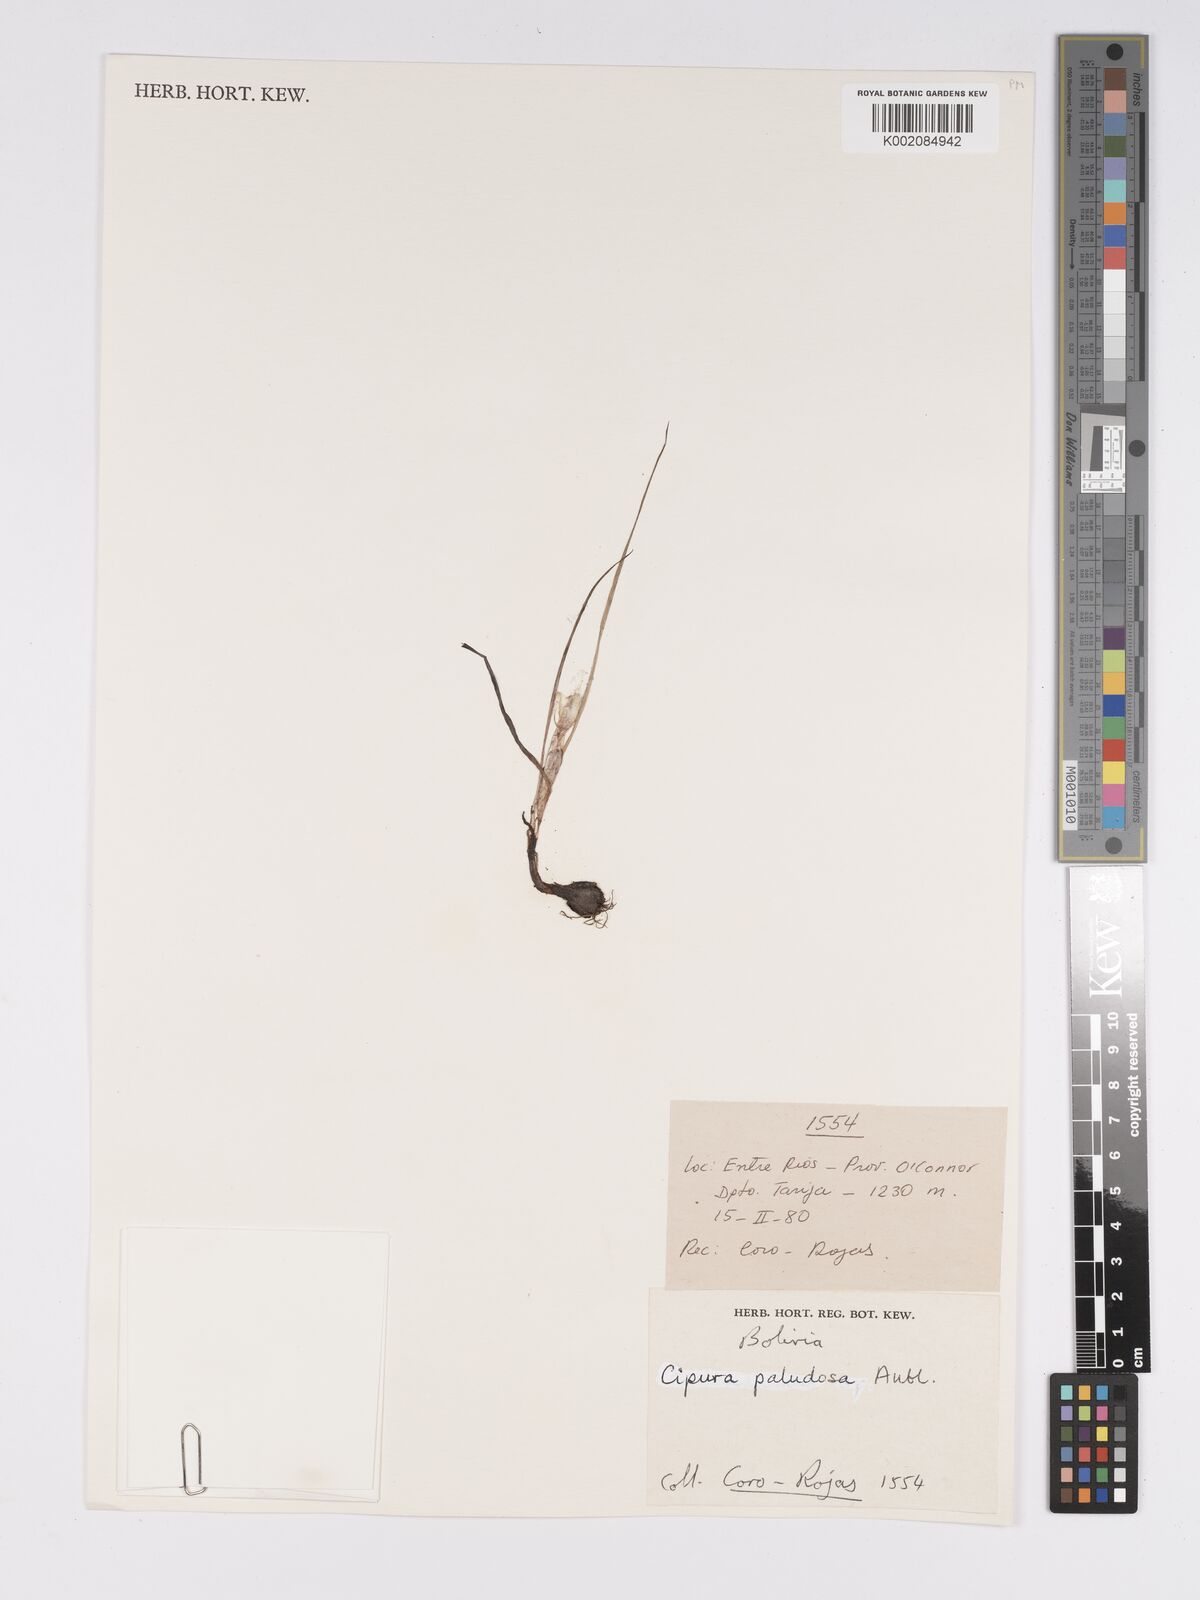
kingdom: Plantae
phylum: Tracheophyta
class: Liliopsida
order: Asparagales
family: Iridaceae
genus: Cipura
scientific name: Cipura paludosa
